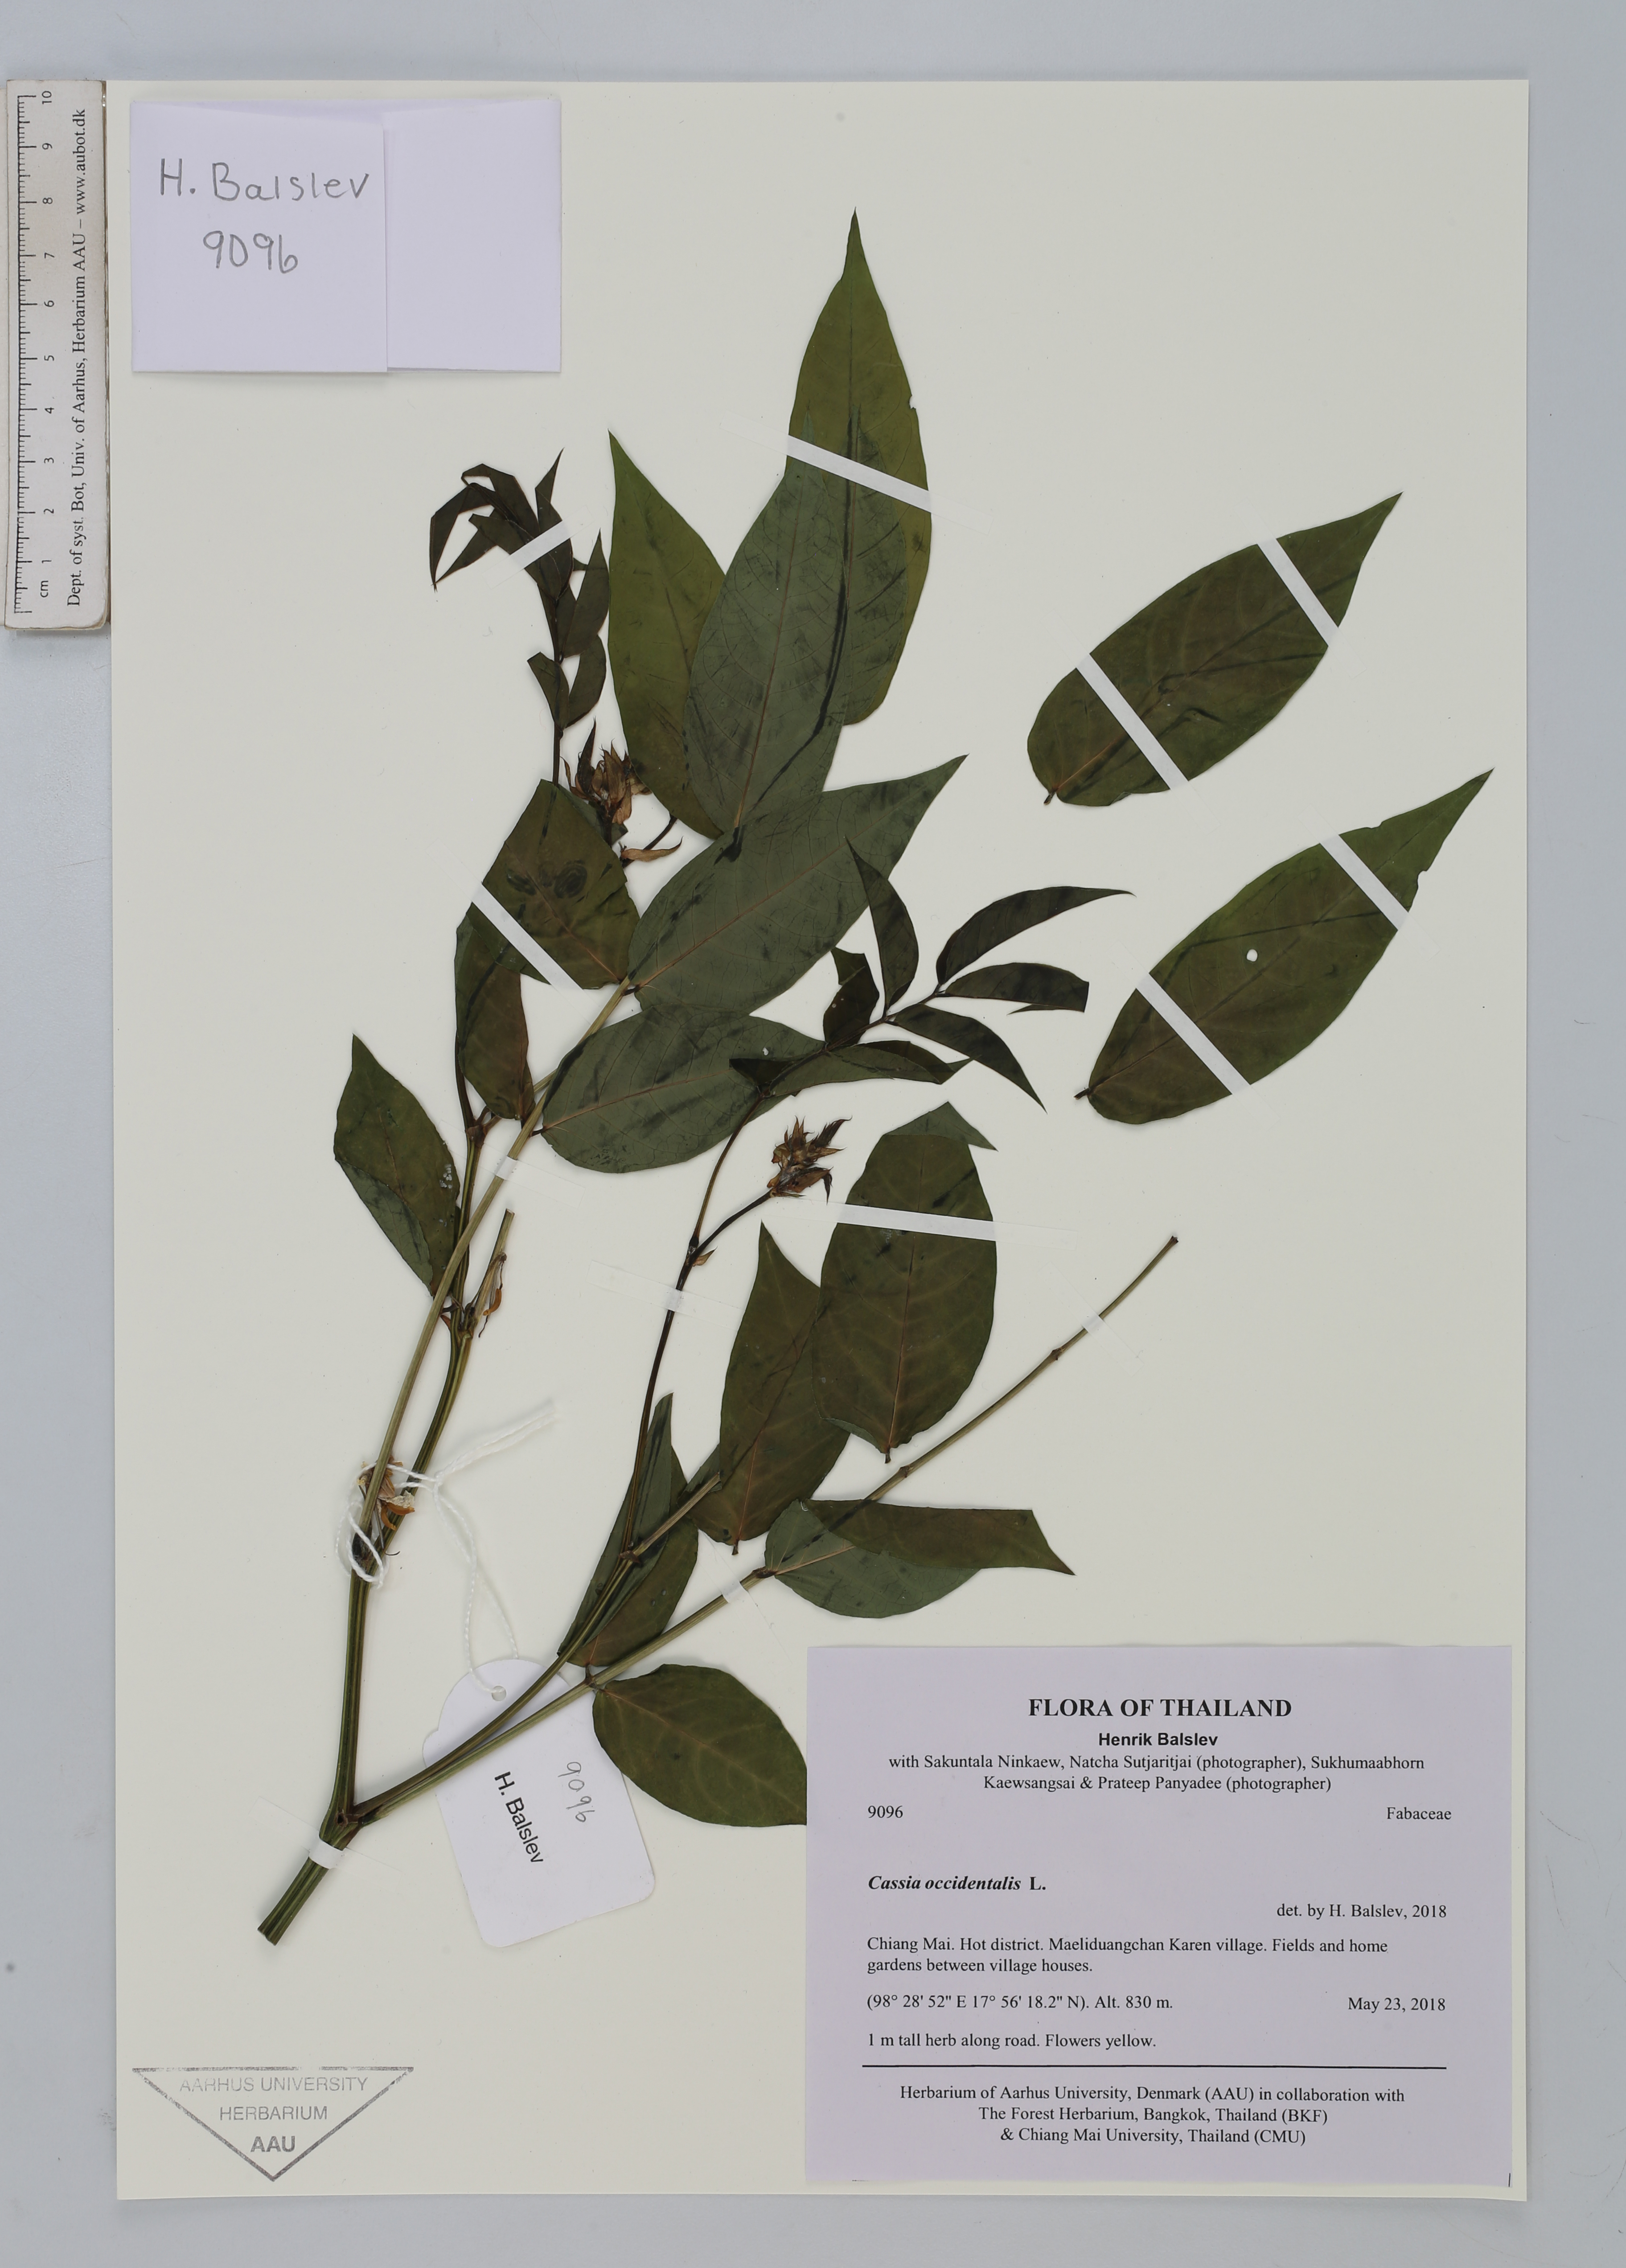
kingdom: Plantae
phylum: Tracheophyta
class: Magnoliopsida
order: Fabales
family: Fabaceae
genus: Senna
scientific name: Senna occidentalis
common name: Septicweed
